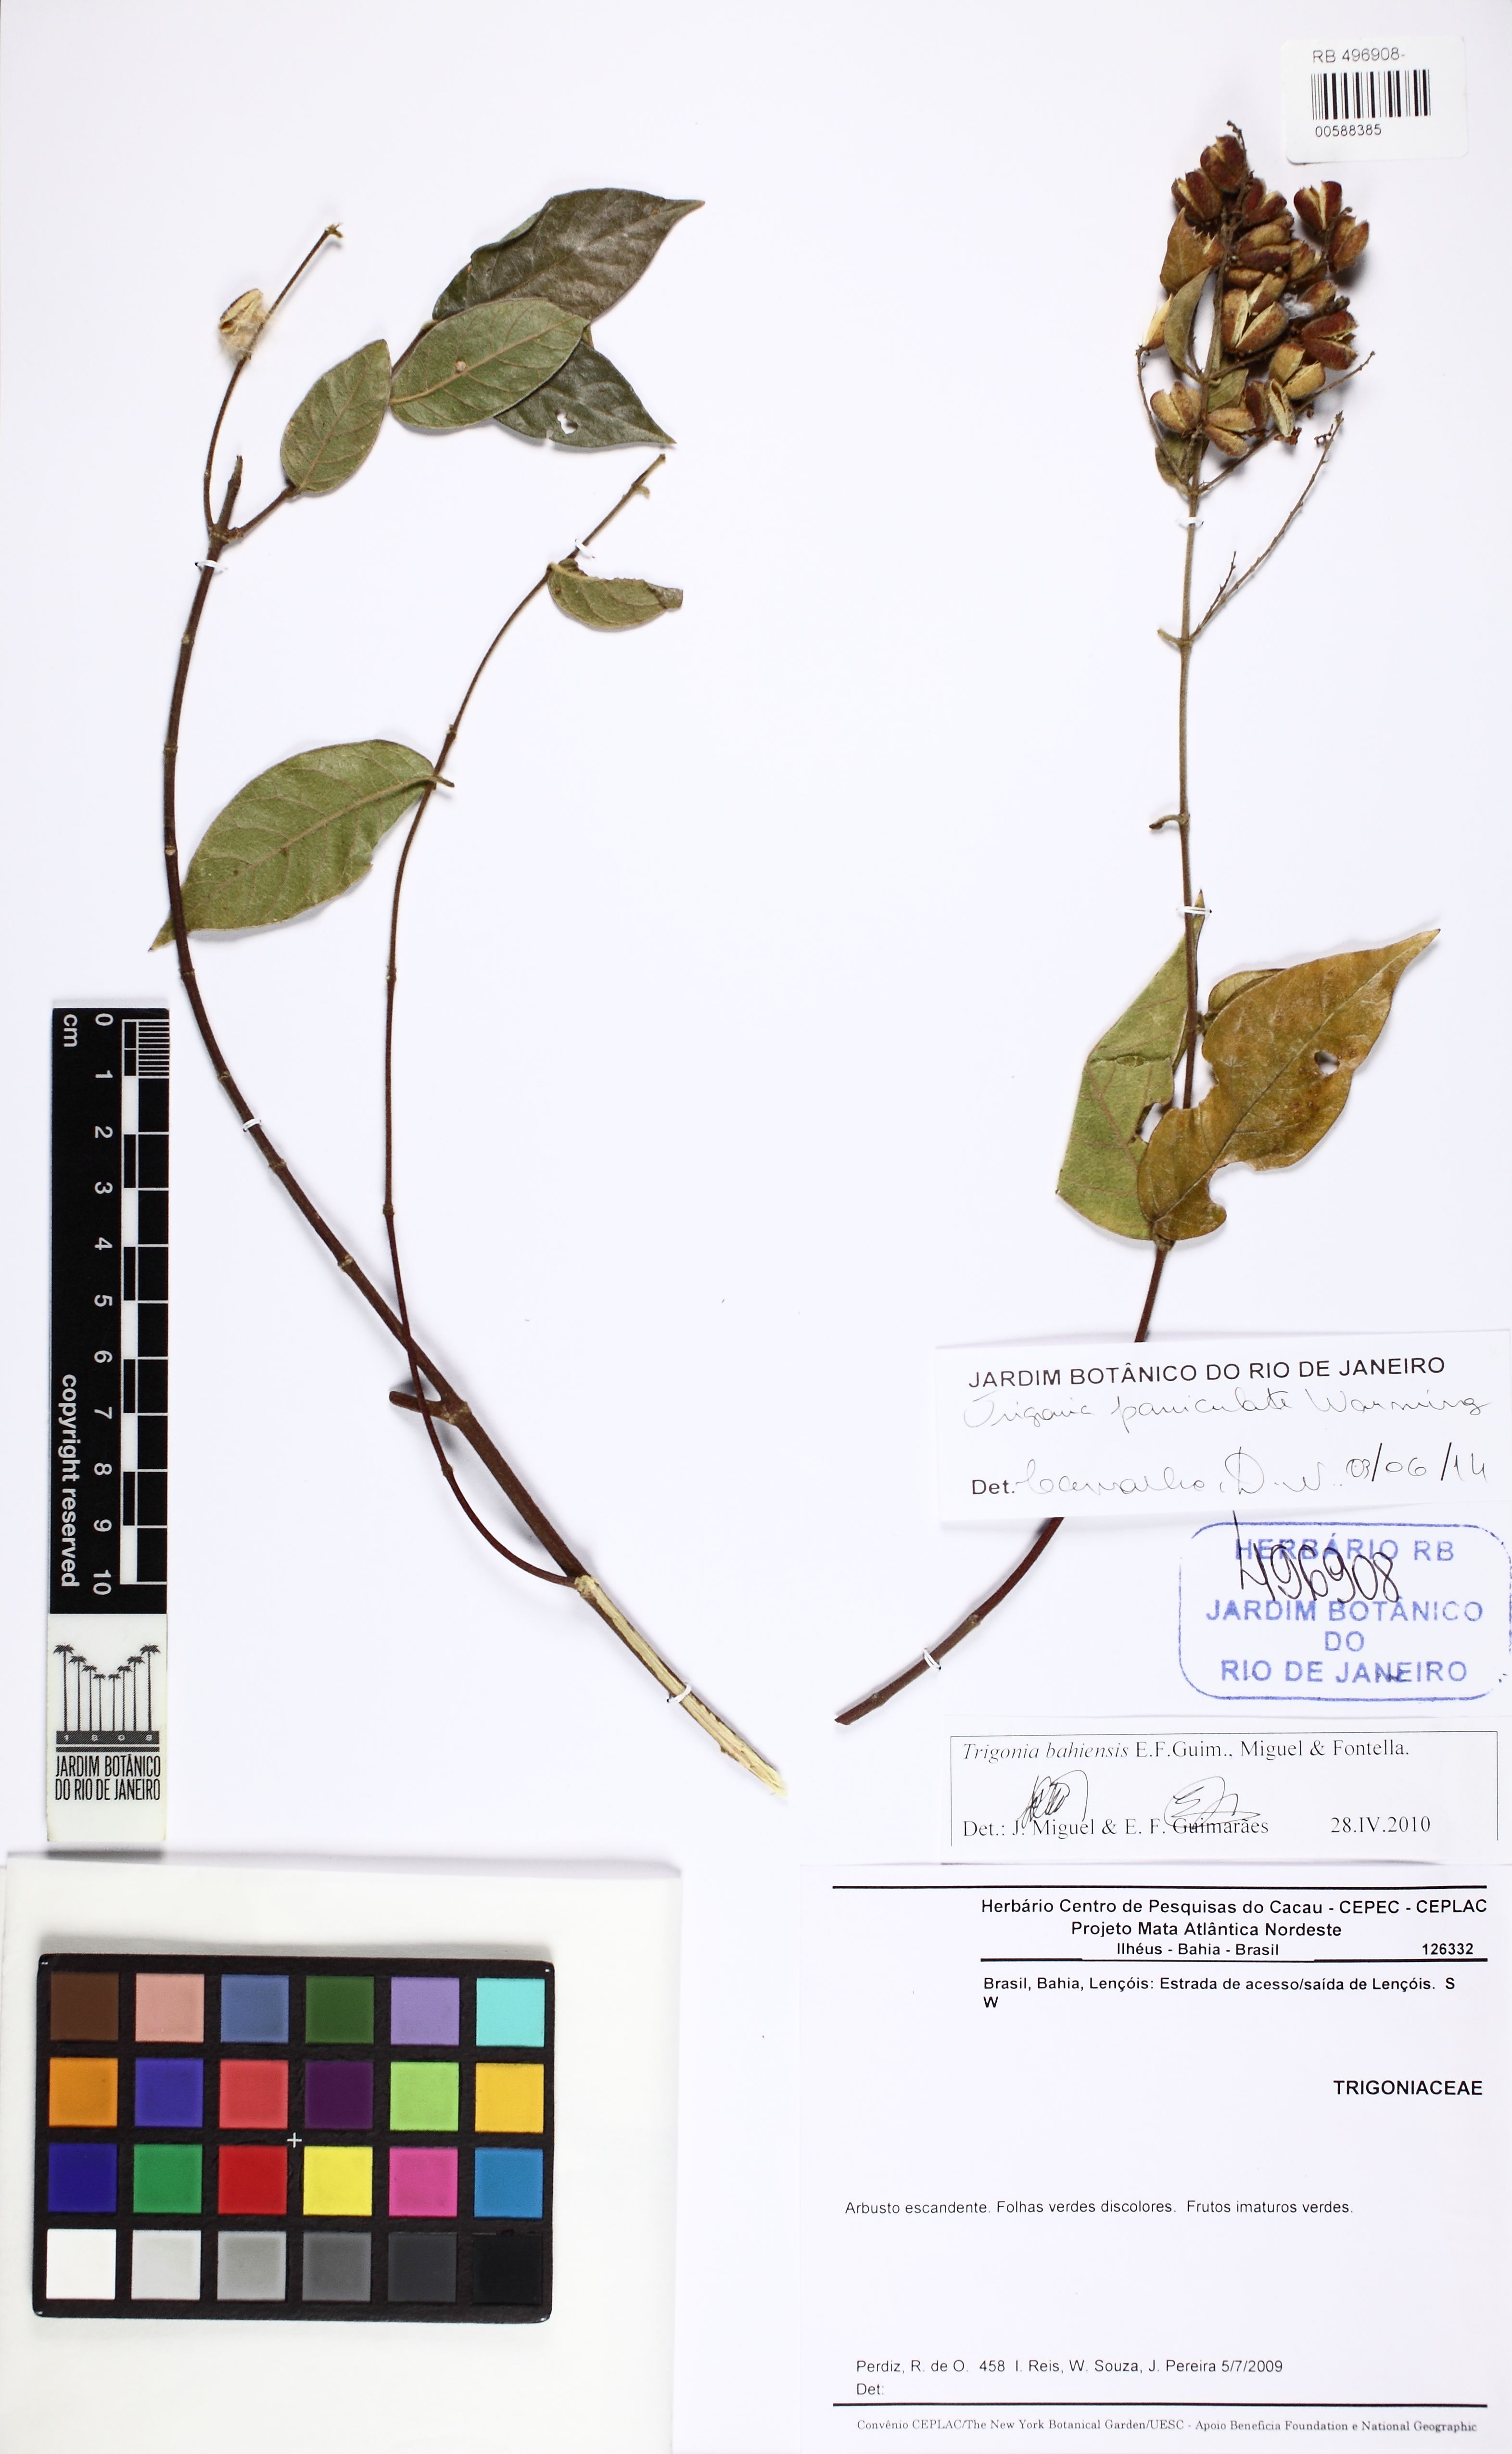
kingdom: Plantae
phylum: Tracheophyta
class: Magnoliopsida
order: Malpighiales
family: Trigoniaceae
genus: Trigonia
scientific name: Trigonia paniculata
